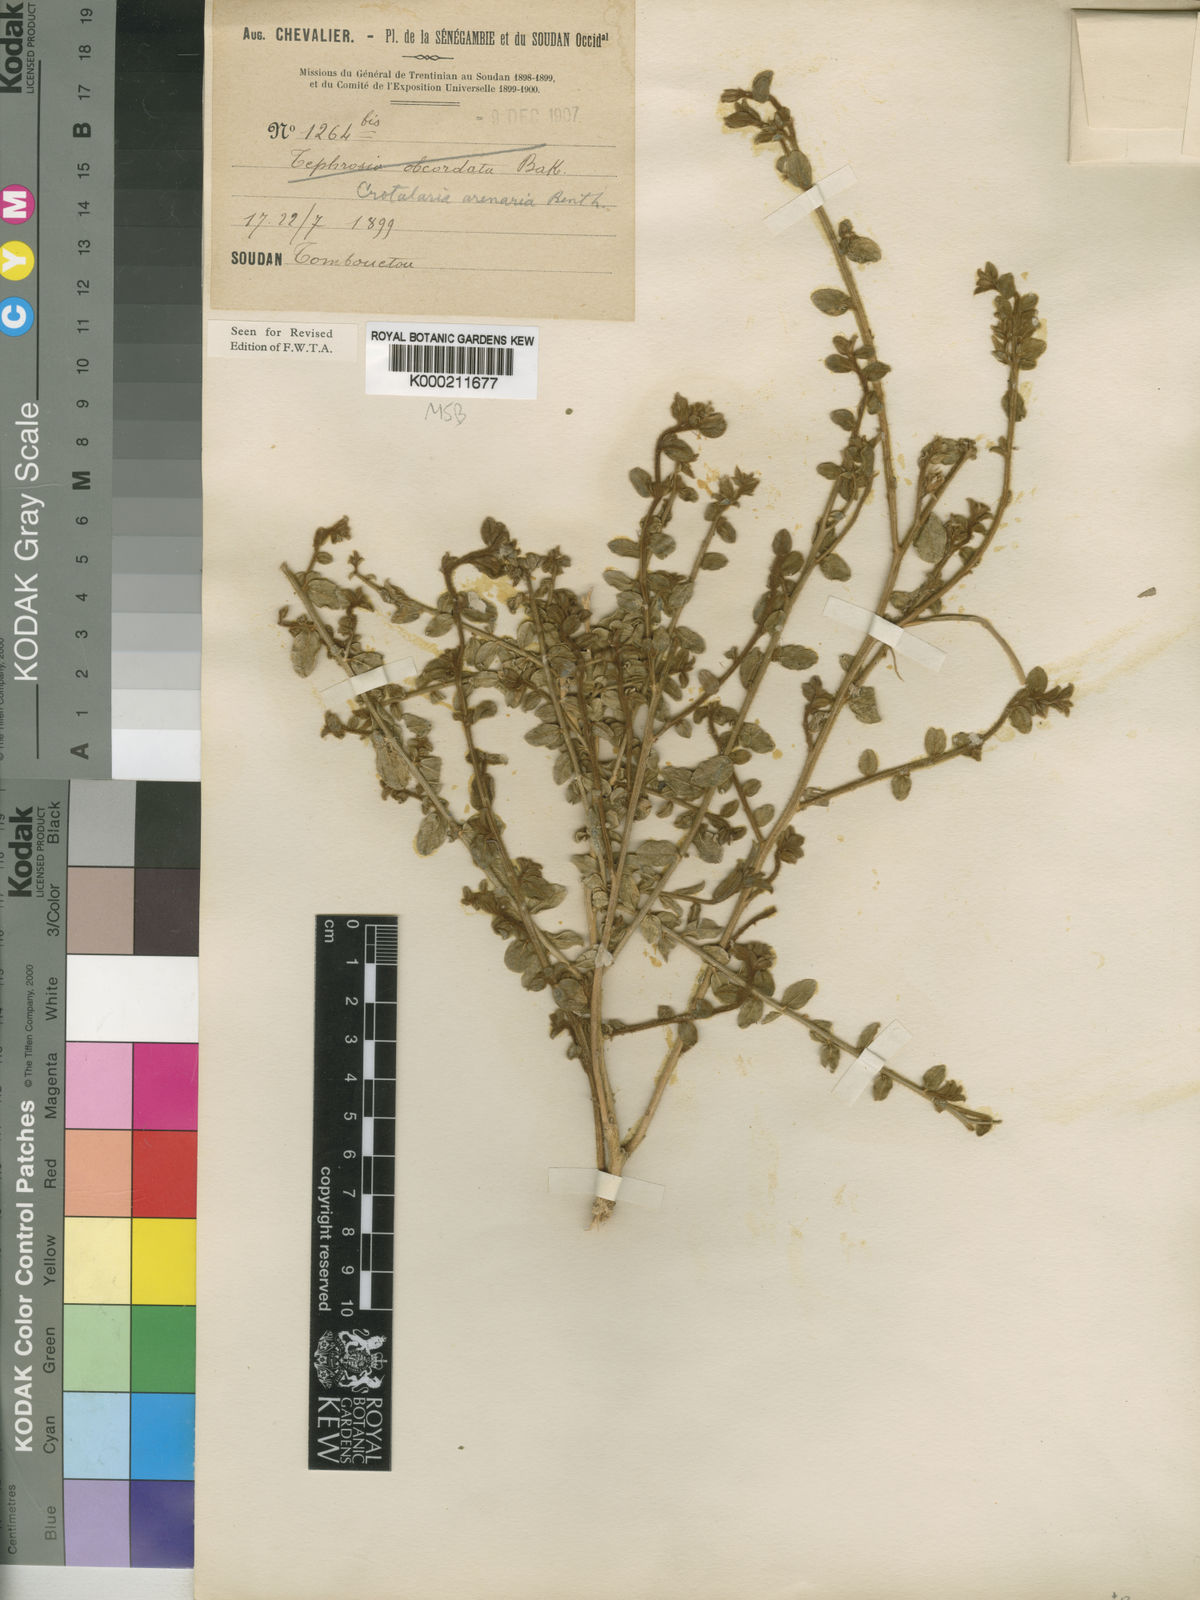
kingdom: Plantae
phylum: Tracheophyta
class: Magnoliopsida
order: Fabales
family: Fabaceae
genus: Crotalaria
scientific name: Crotalaria arenaria
